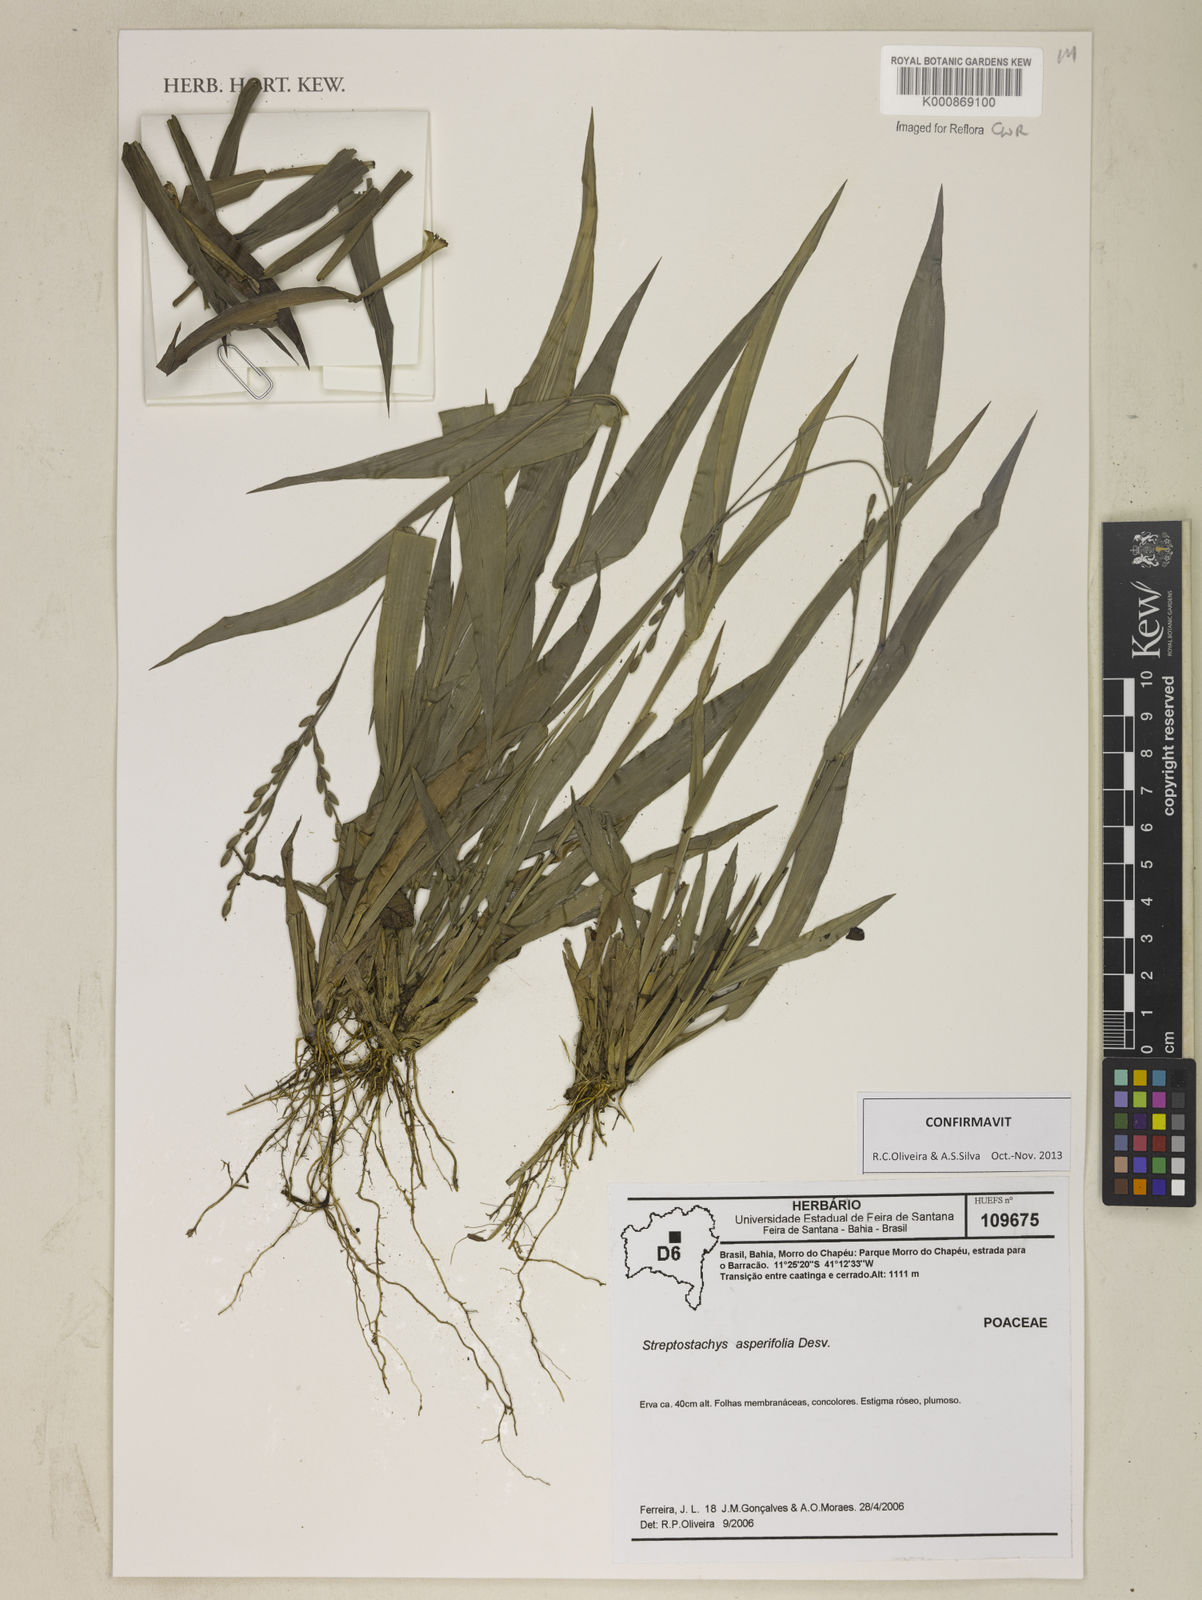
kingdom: Plantae
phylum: Tracheophyta
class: Liliopsida
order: Poales
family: Poaceae
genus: Streptostachys
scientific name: Streptostachys asperifolia
